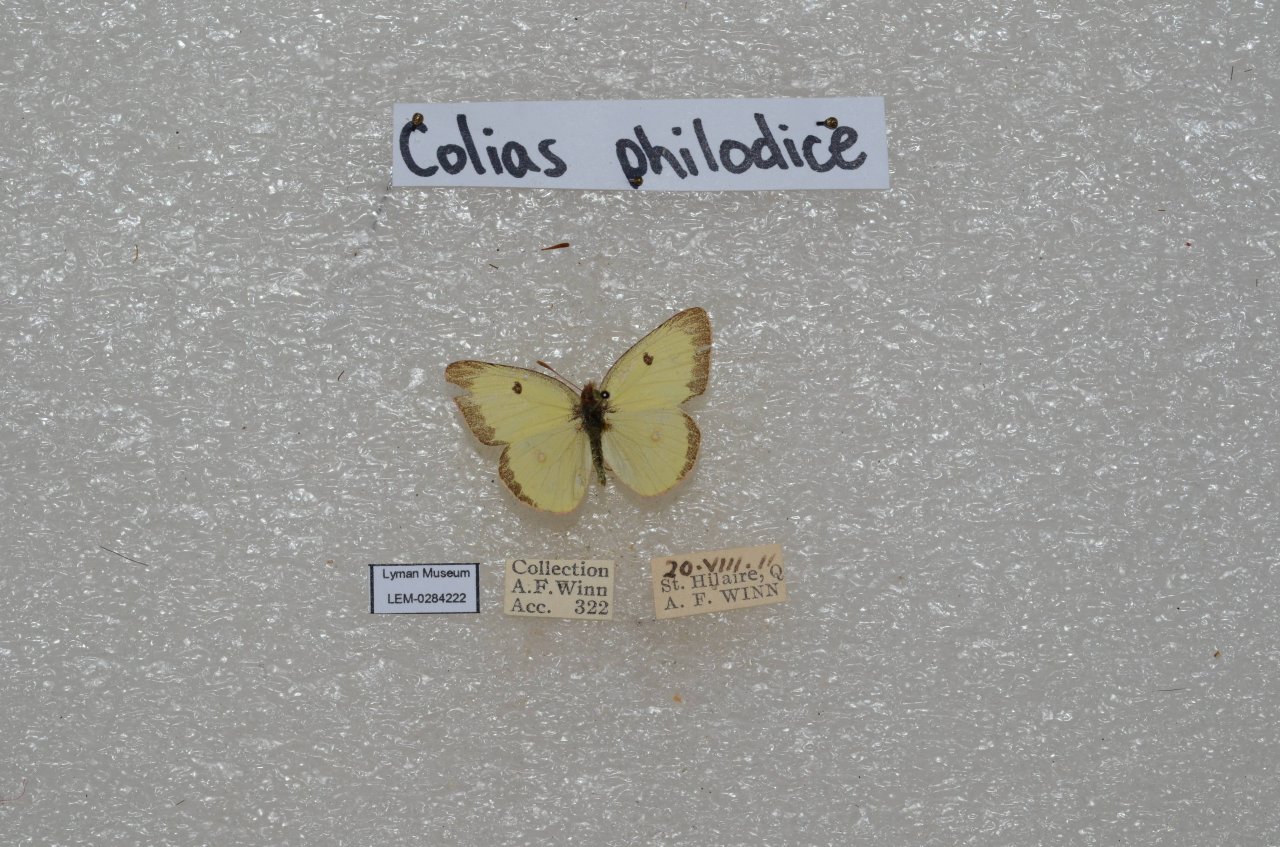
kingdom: Animalia
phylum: Arthropoda
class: Insecta
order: Lepidoptera
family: Pieridae
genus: Colias
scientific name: Colias philodice
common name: Clouded Sulphur
